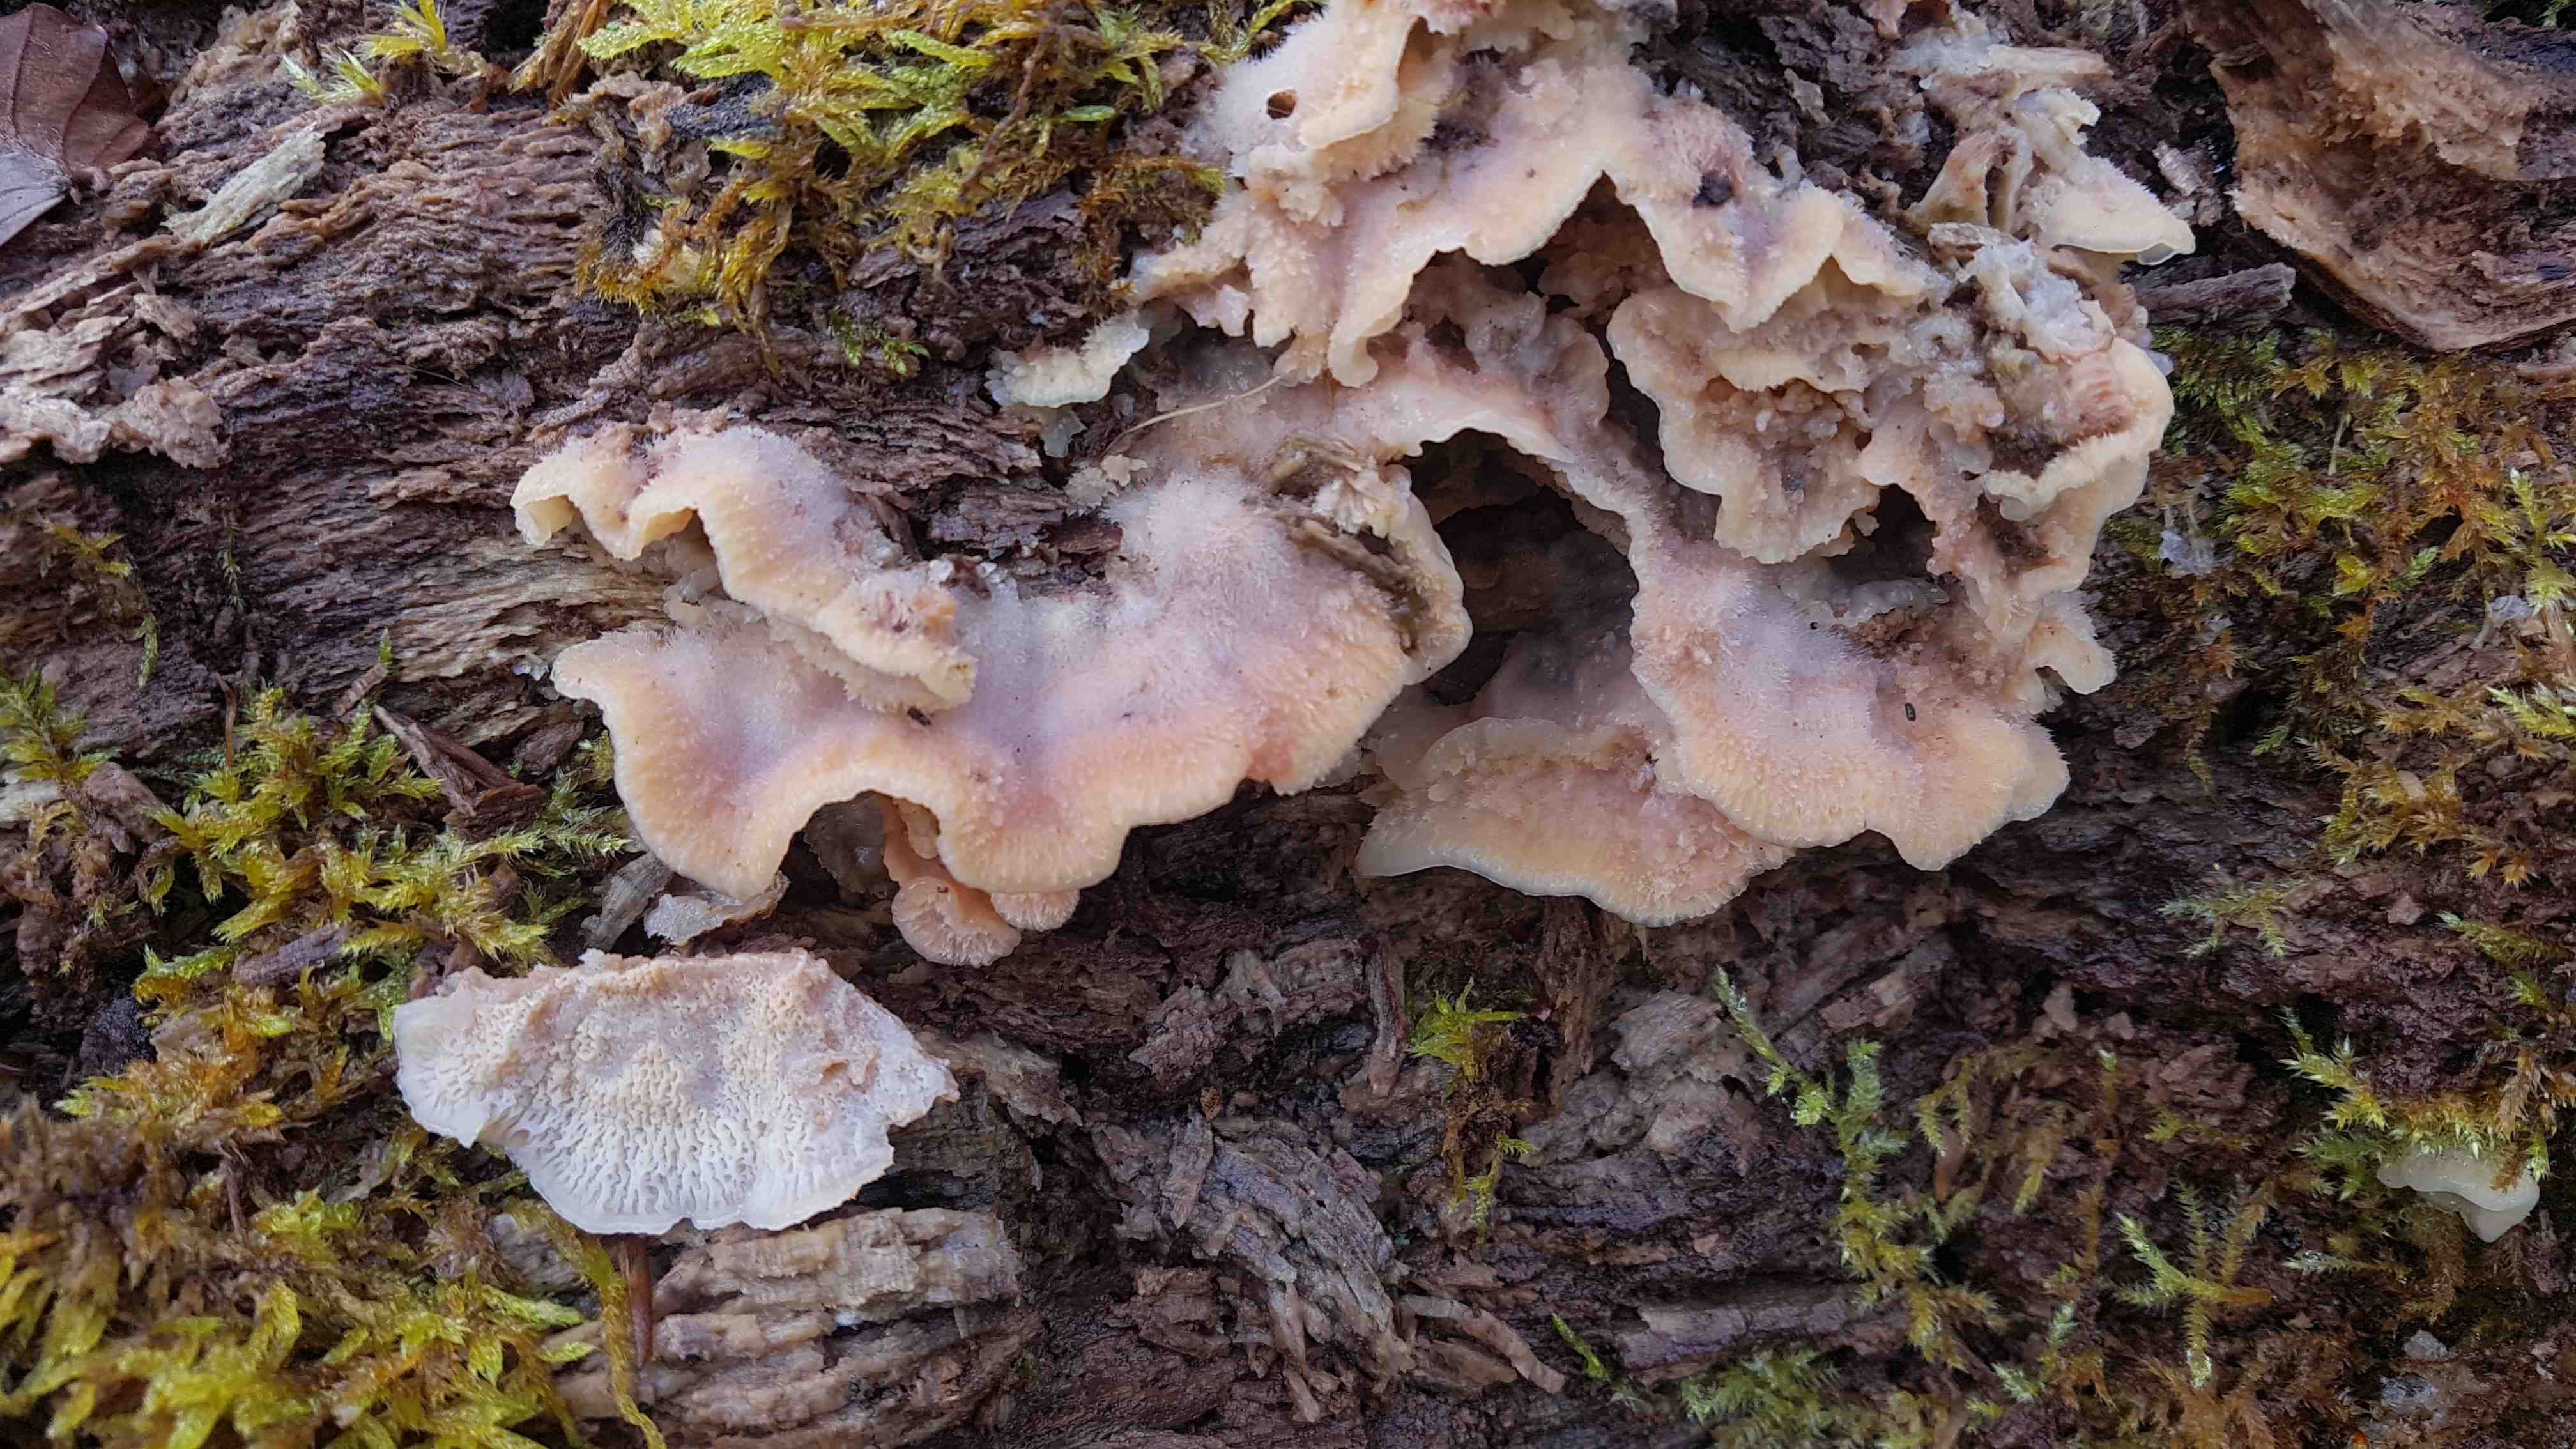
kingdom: Fungi
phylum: Basidiomycota
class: Agaricomycetes
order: Polyporales
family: Meruliaceae
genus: Phlebia
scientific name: Phlebia tremellosa
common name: bævrende åresvamp
